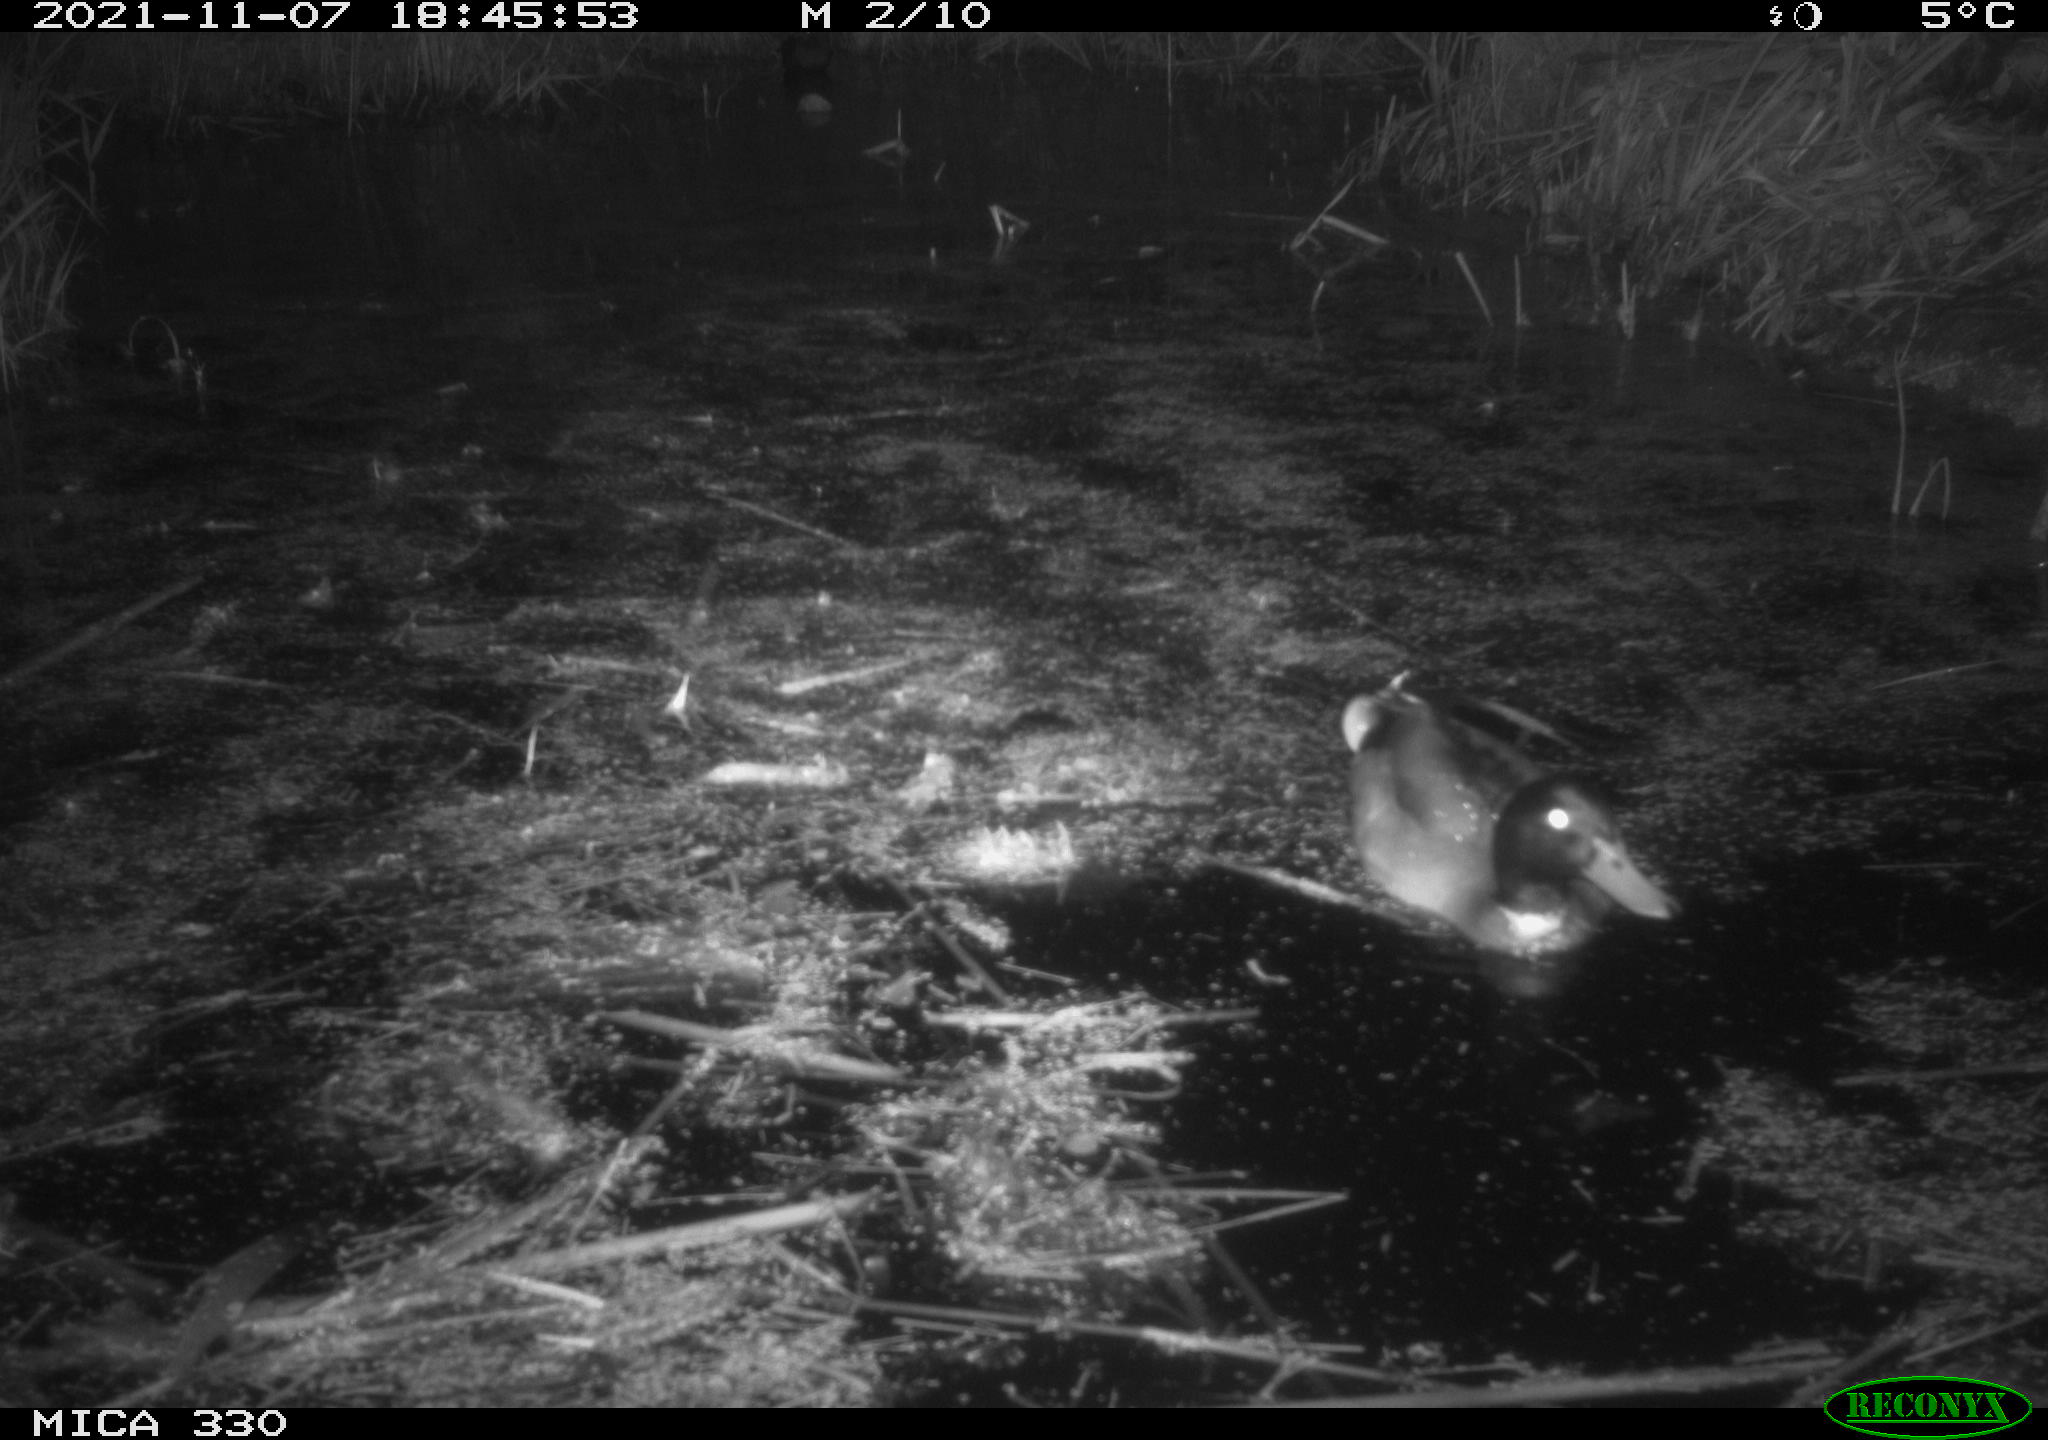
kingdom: Animalia
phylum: Chordata
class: Aves
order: Anseriformes
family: Anatidae
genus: Anas
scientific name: Anas platyrhynchos
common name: Mallard
